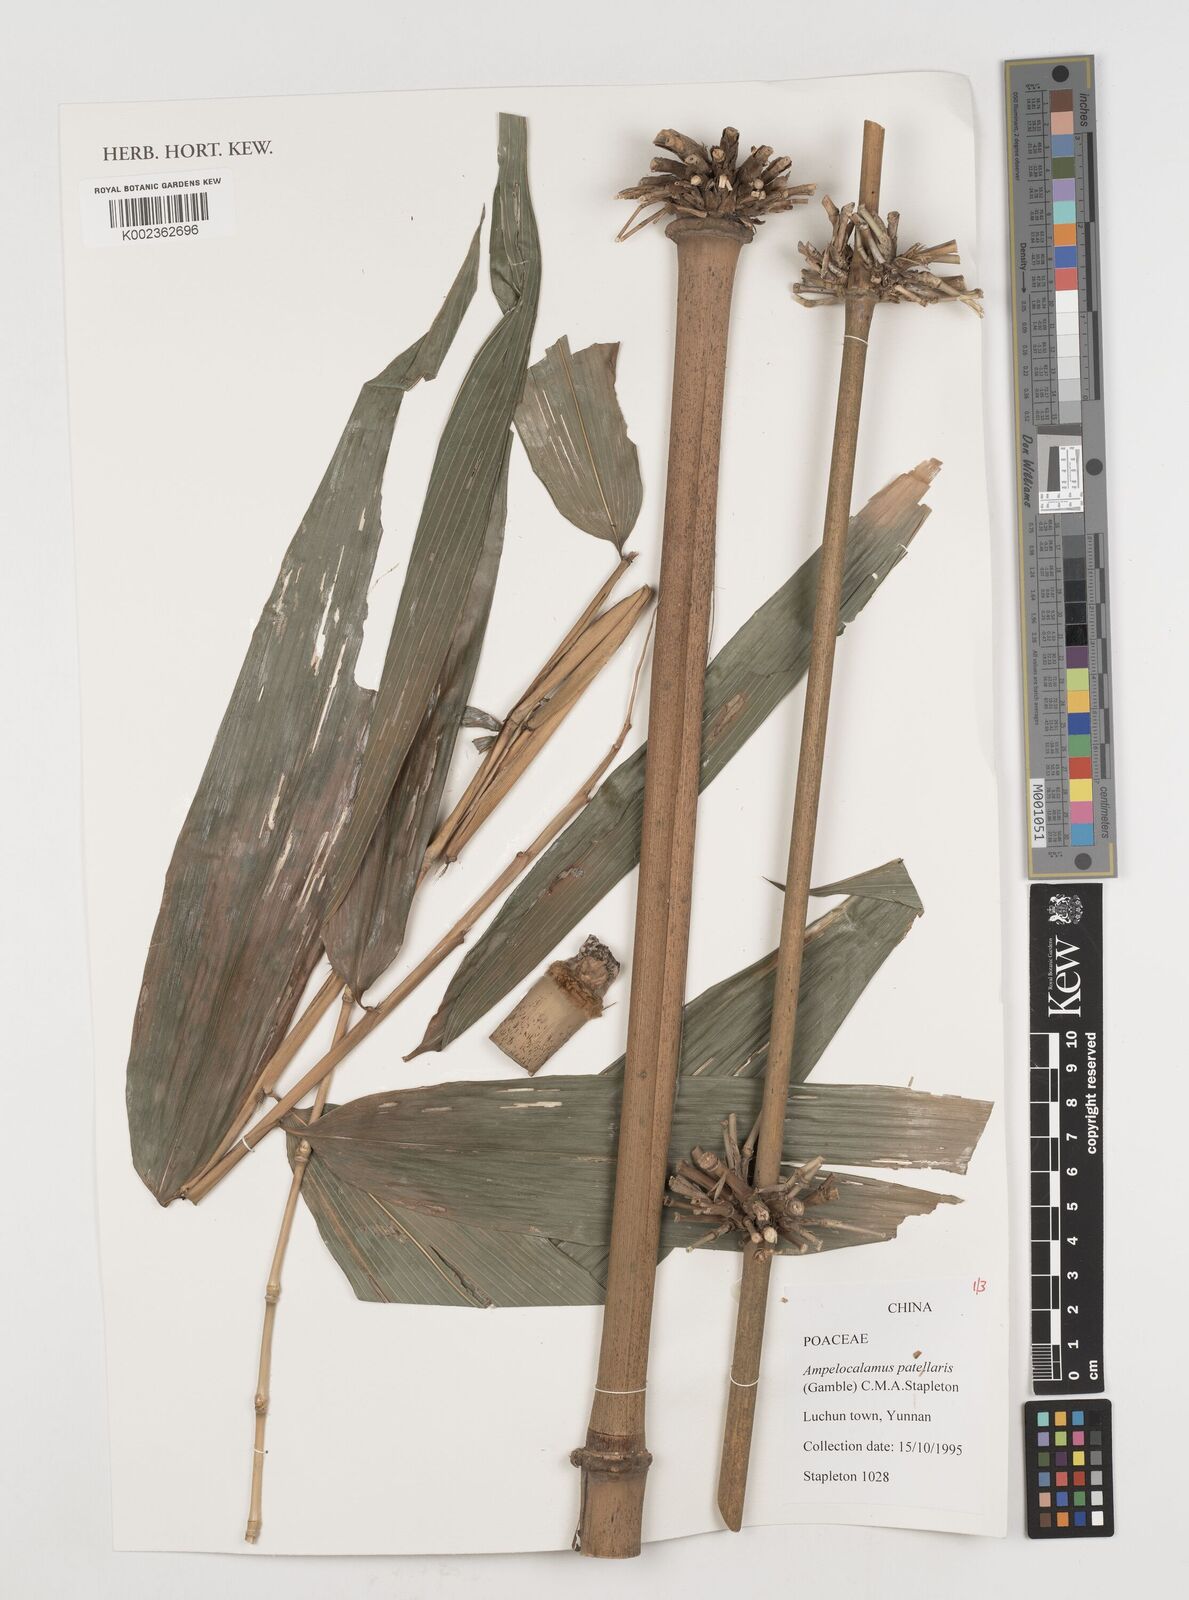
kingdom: Plantae
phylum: Tracheophyta
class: Liliopsida
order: Poales
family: Poaceae
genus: Ampelocalamus
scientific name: Ampelocalamus patellaris
